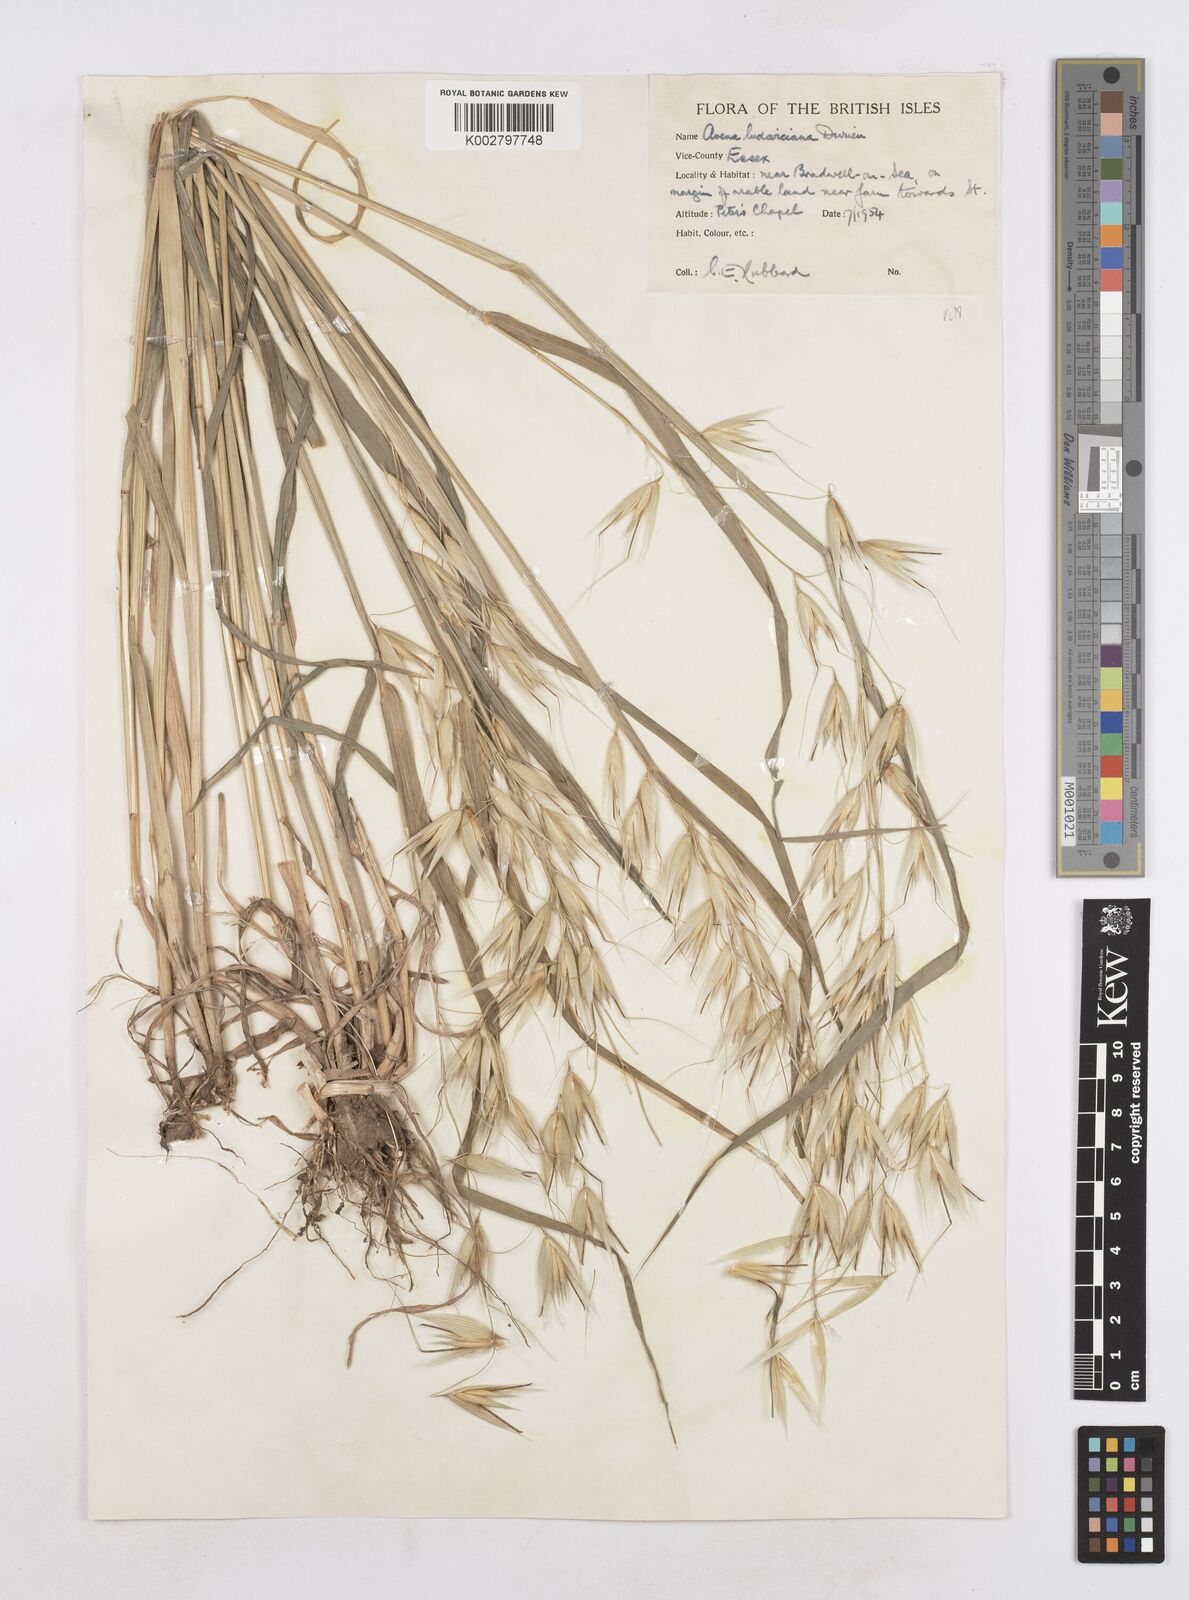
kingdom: Plantae
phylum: Tracheophyta
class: Liliopsida
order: Poales
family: Poaceae
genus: Avena
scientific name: Avena sterilis
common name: Animated oat
